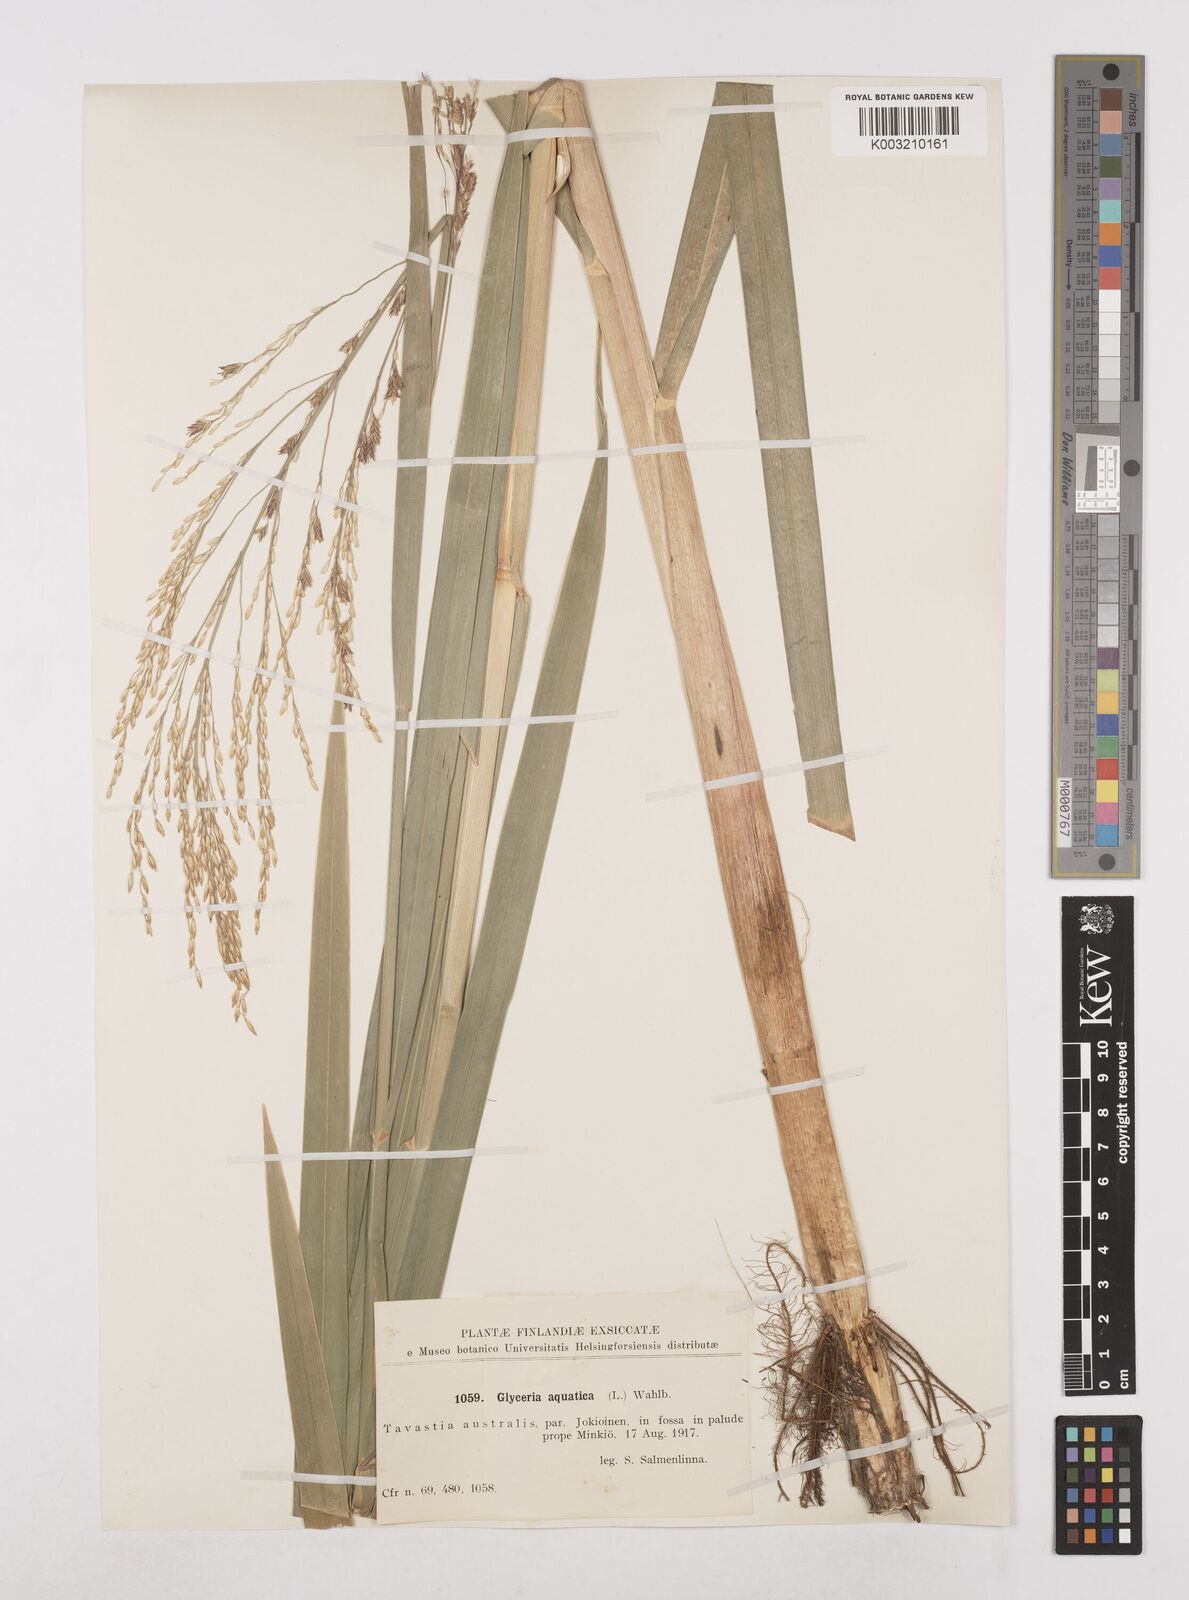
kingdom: Plantae
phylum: Tracheophyta
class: Liliopsida
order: Poales
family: Poaceae
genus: Glyceria
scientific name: Glyceria maxima
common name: Reed mannagrass
